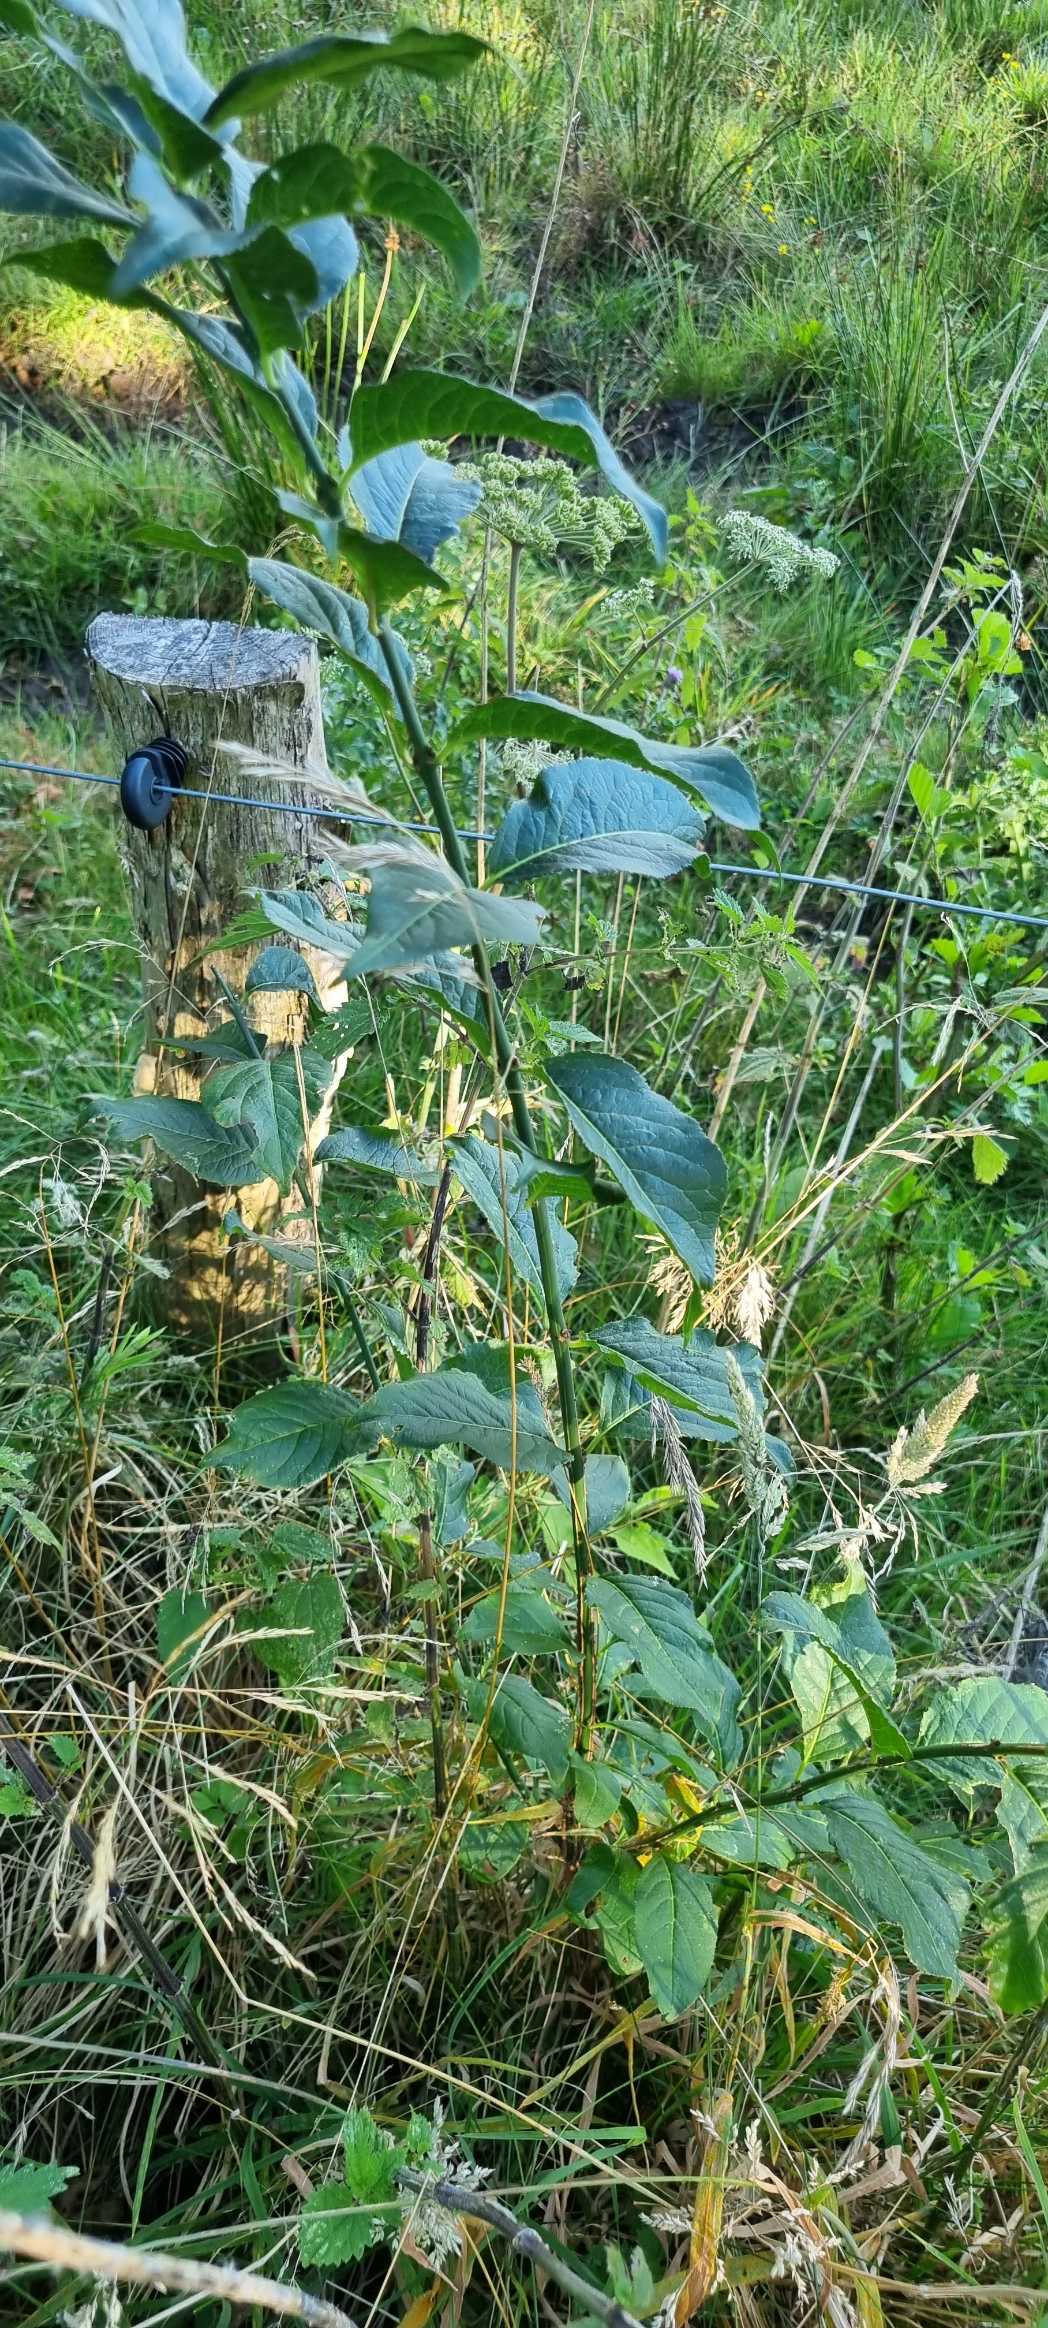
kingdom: Plantae
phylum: Tracheophyta
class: Magnoliopsida
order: Celastrales
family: Celastraceae
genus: Euonymus
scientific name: Euonymus europaeus
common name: Benved
